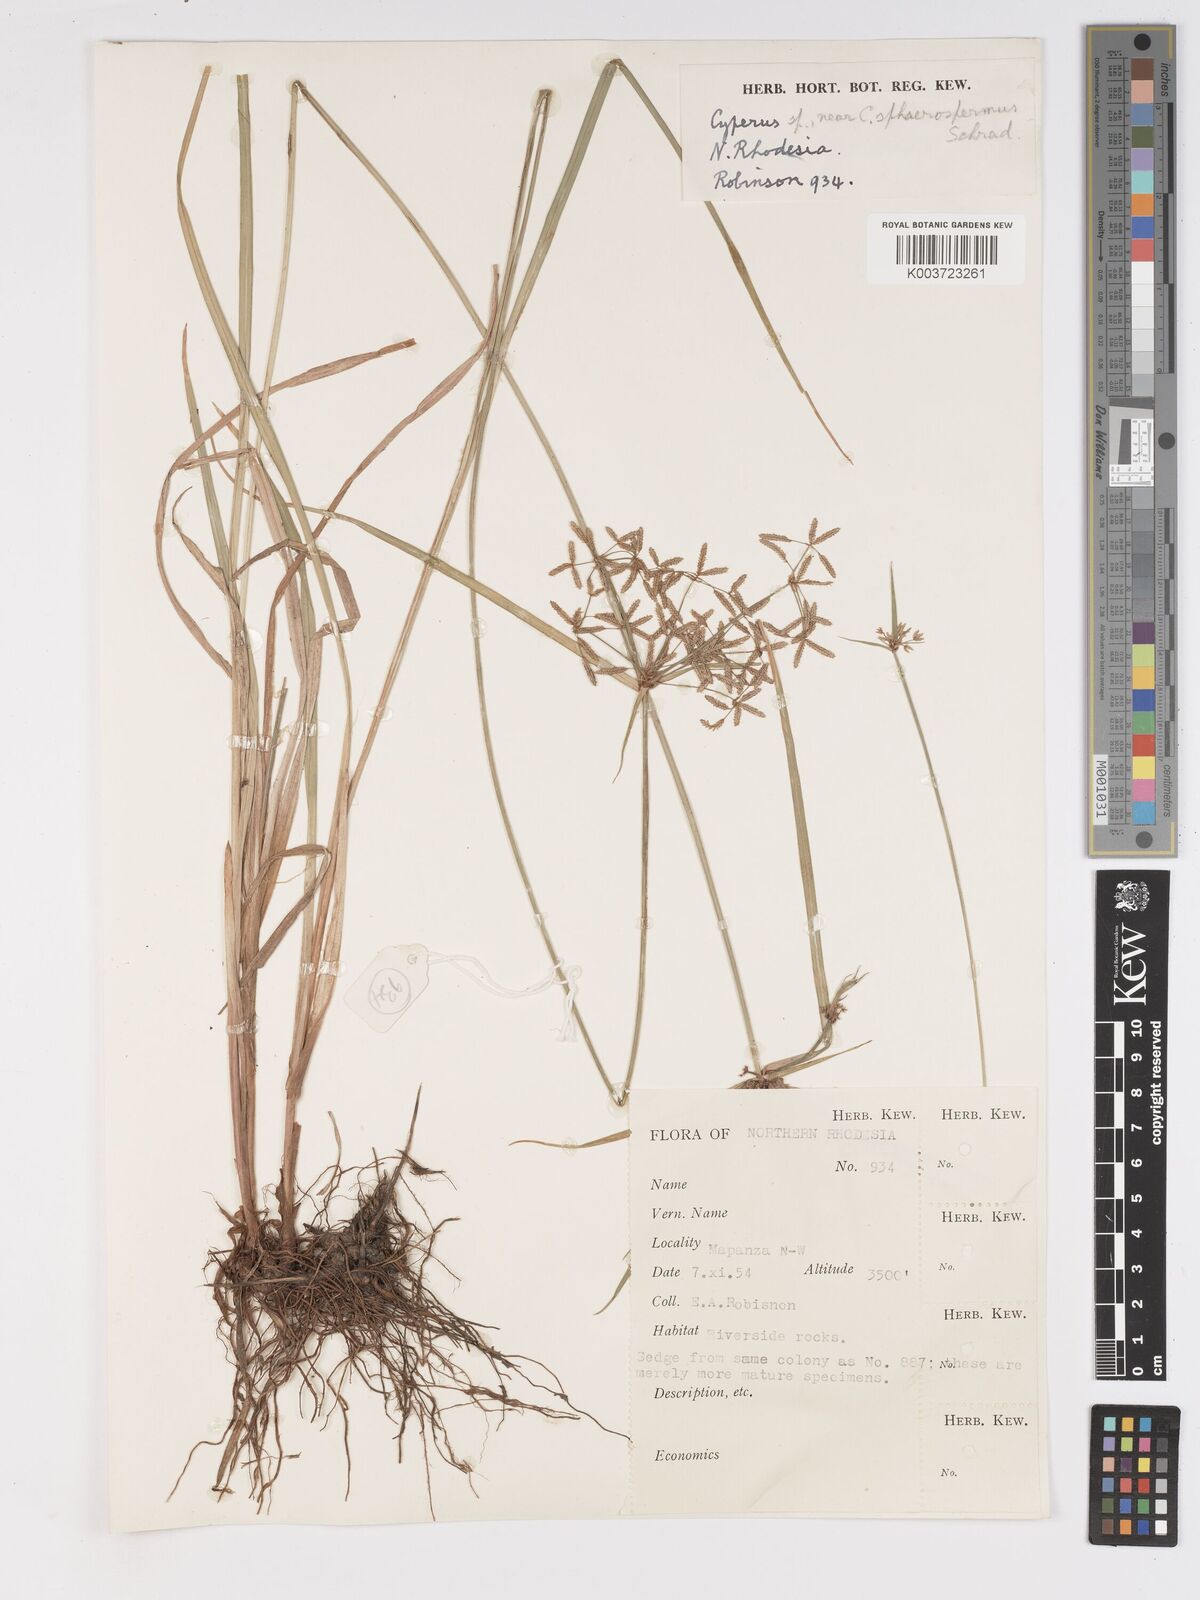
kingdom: Plantae
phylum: Tracheophyta
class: Liliopsida
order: Poales
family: Cyperaceae
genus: Cyperus
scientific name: Cyperus denudatus
